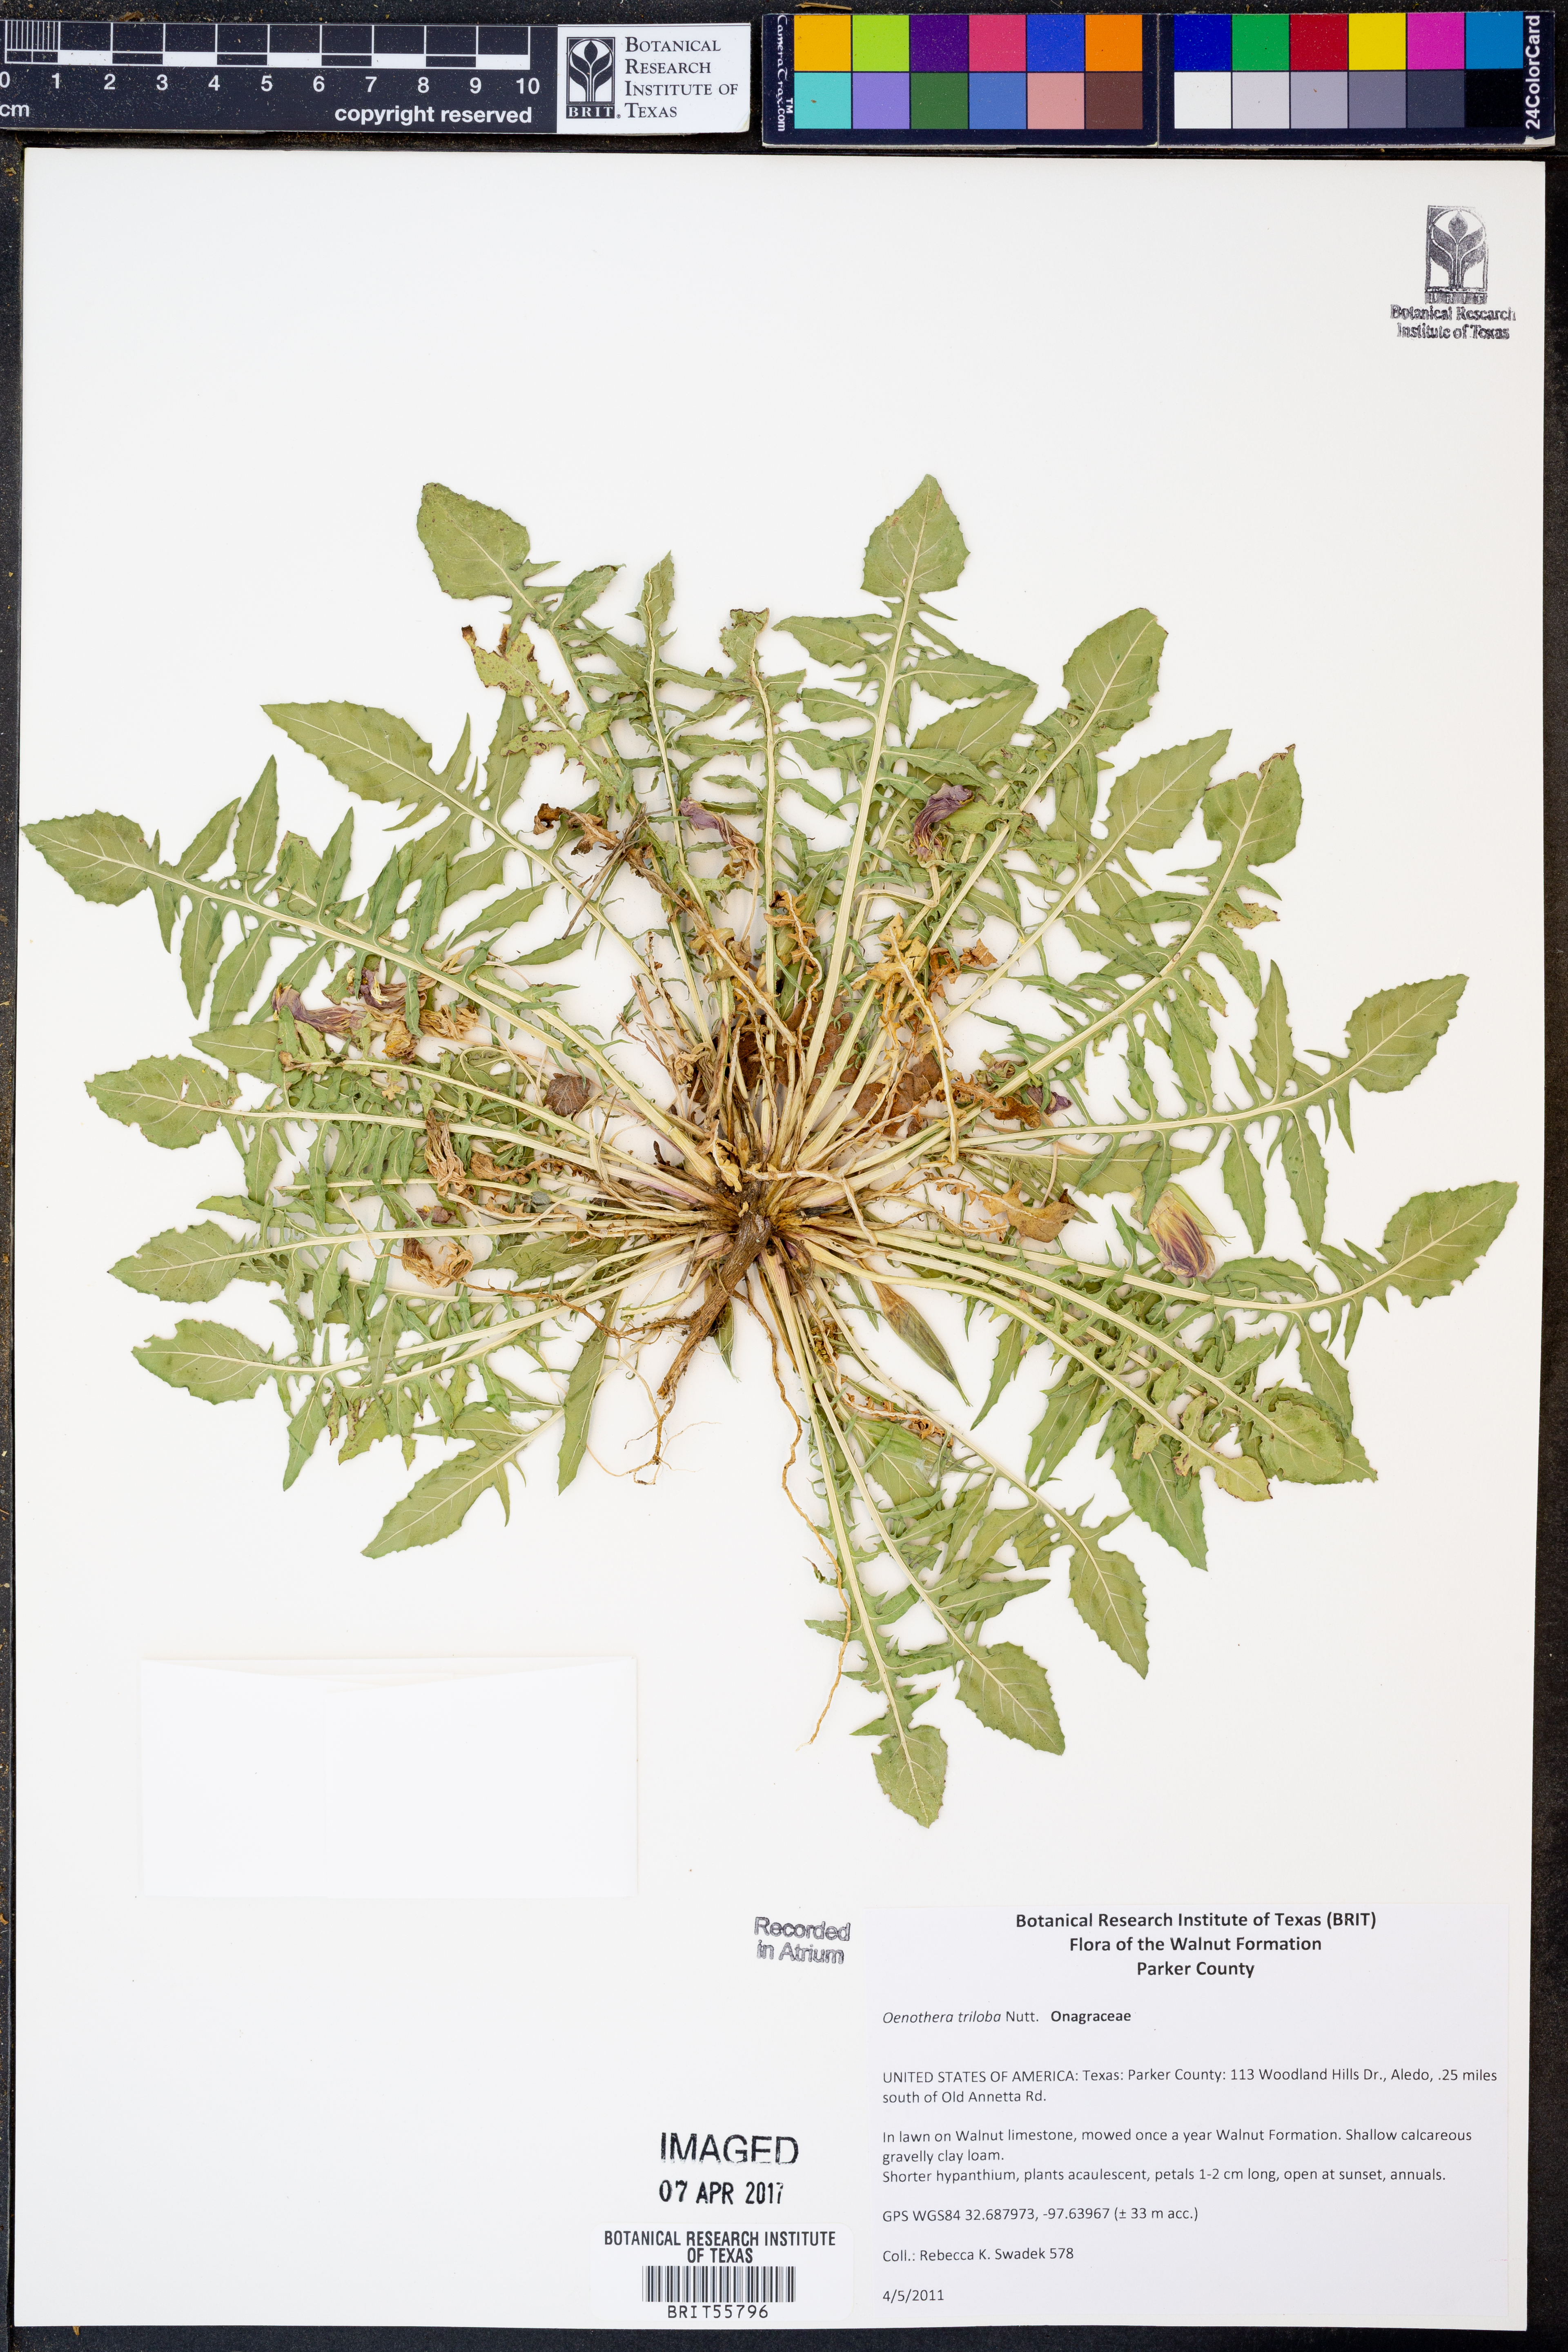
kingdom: Plantae
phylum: Tracheophyta
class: Magnoliopsida
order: Myrtales
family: Onagraceae
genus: Oenothera
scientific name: Oenothera triloba
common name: Sessile evening-primrose
